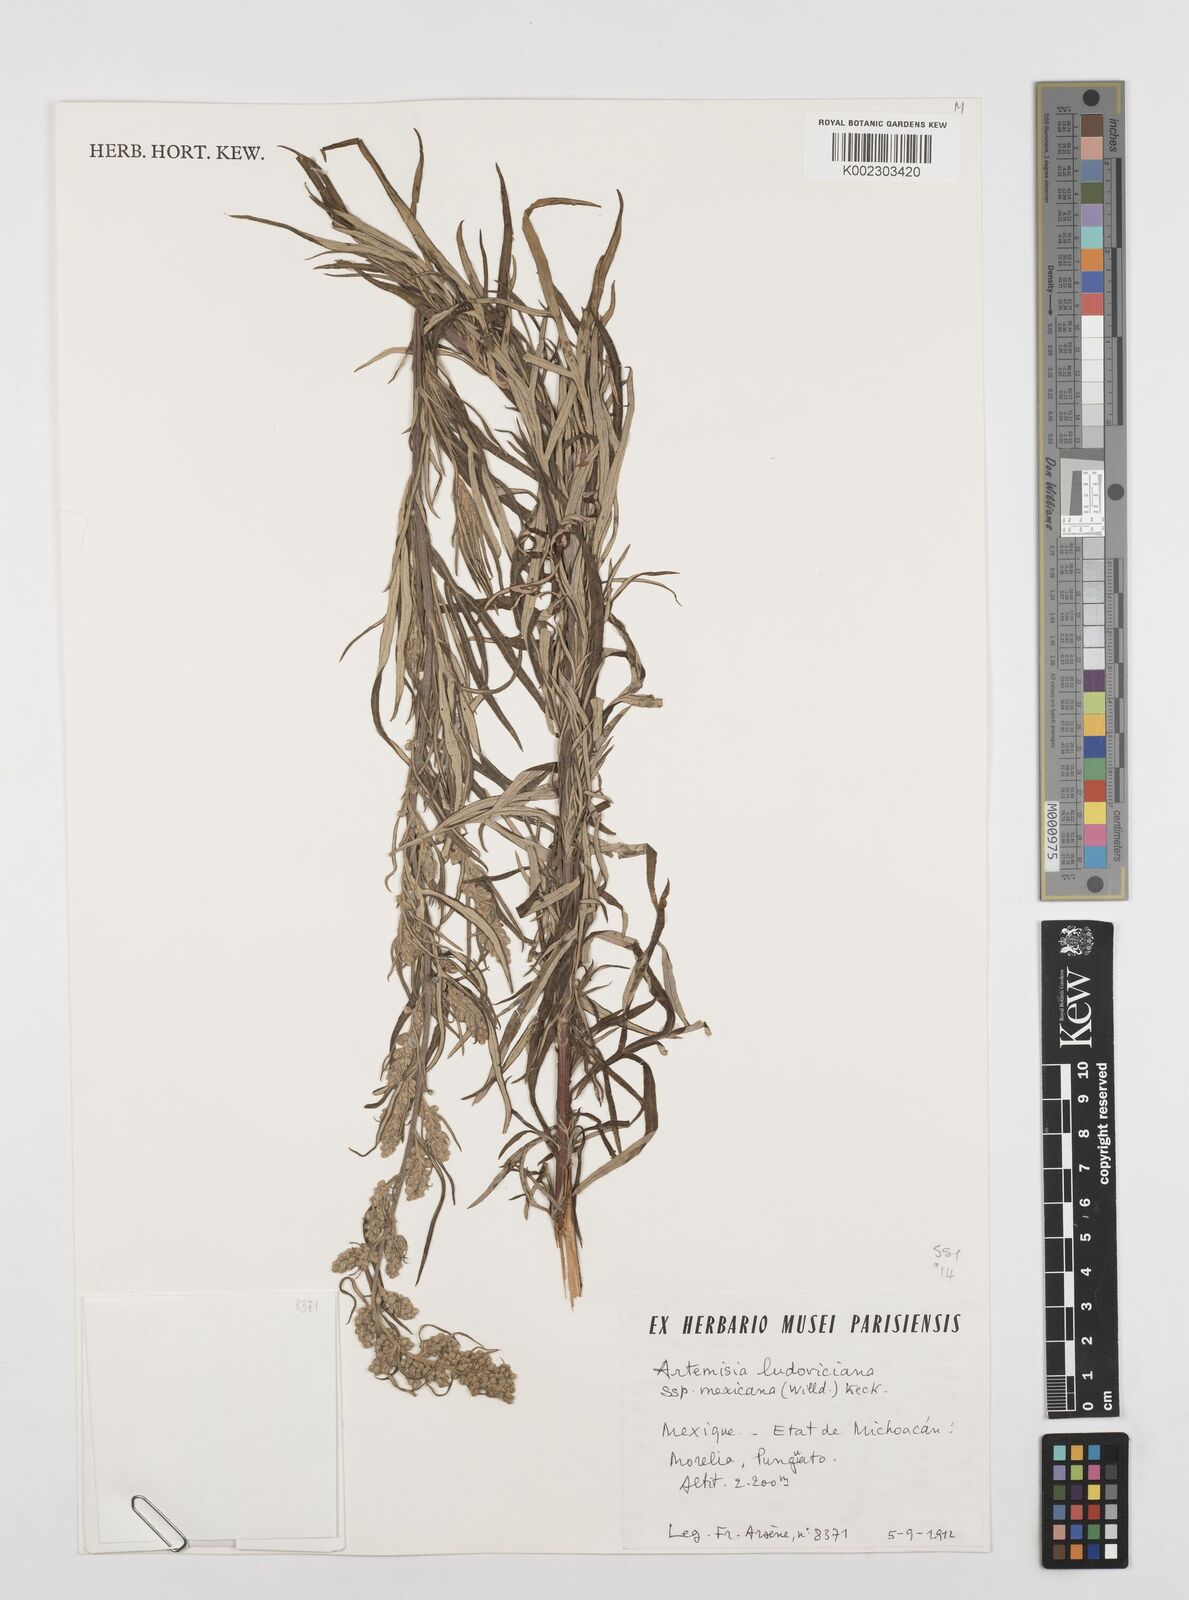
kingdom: Plantae
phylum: Tracheophyta
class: Magnoliopsida
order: Asterales
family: Asteraceae
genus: Artemisia
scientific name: Artemisia ludoviciana
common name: Western mugwort
